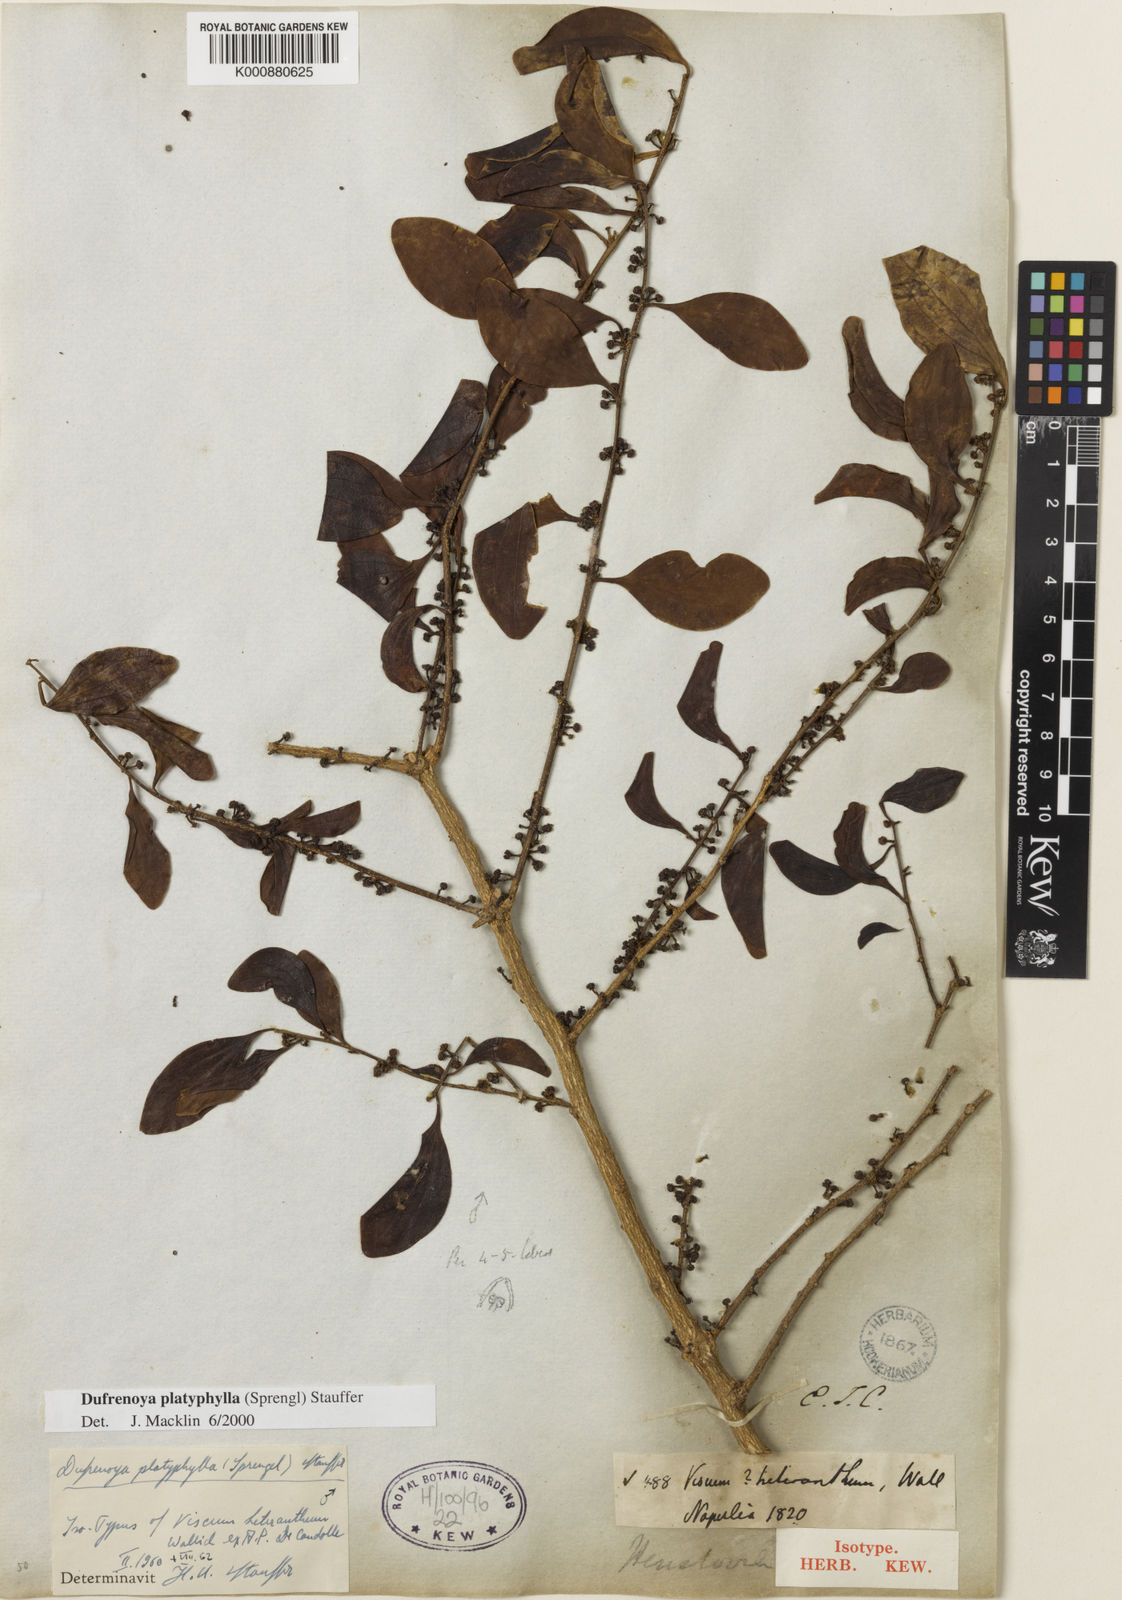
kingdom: Plantae
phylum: Tracheophyta
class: Magnoliopsida
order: Santalales
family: Amphorogynaceae
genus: Dendrotrophe
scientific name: Dendrotrophe platyphylla
